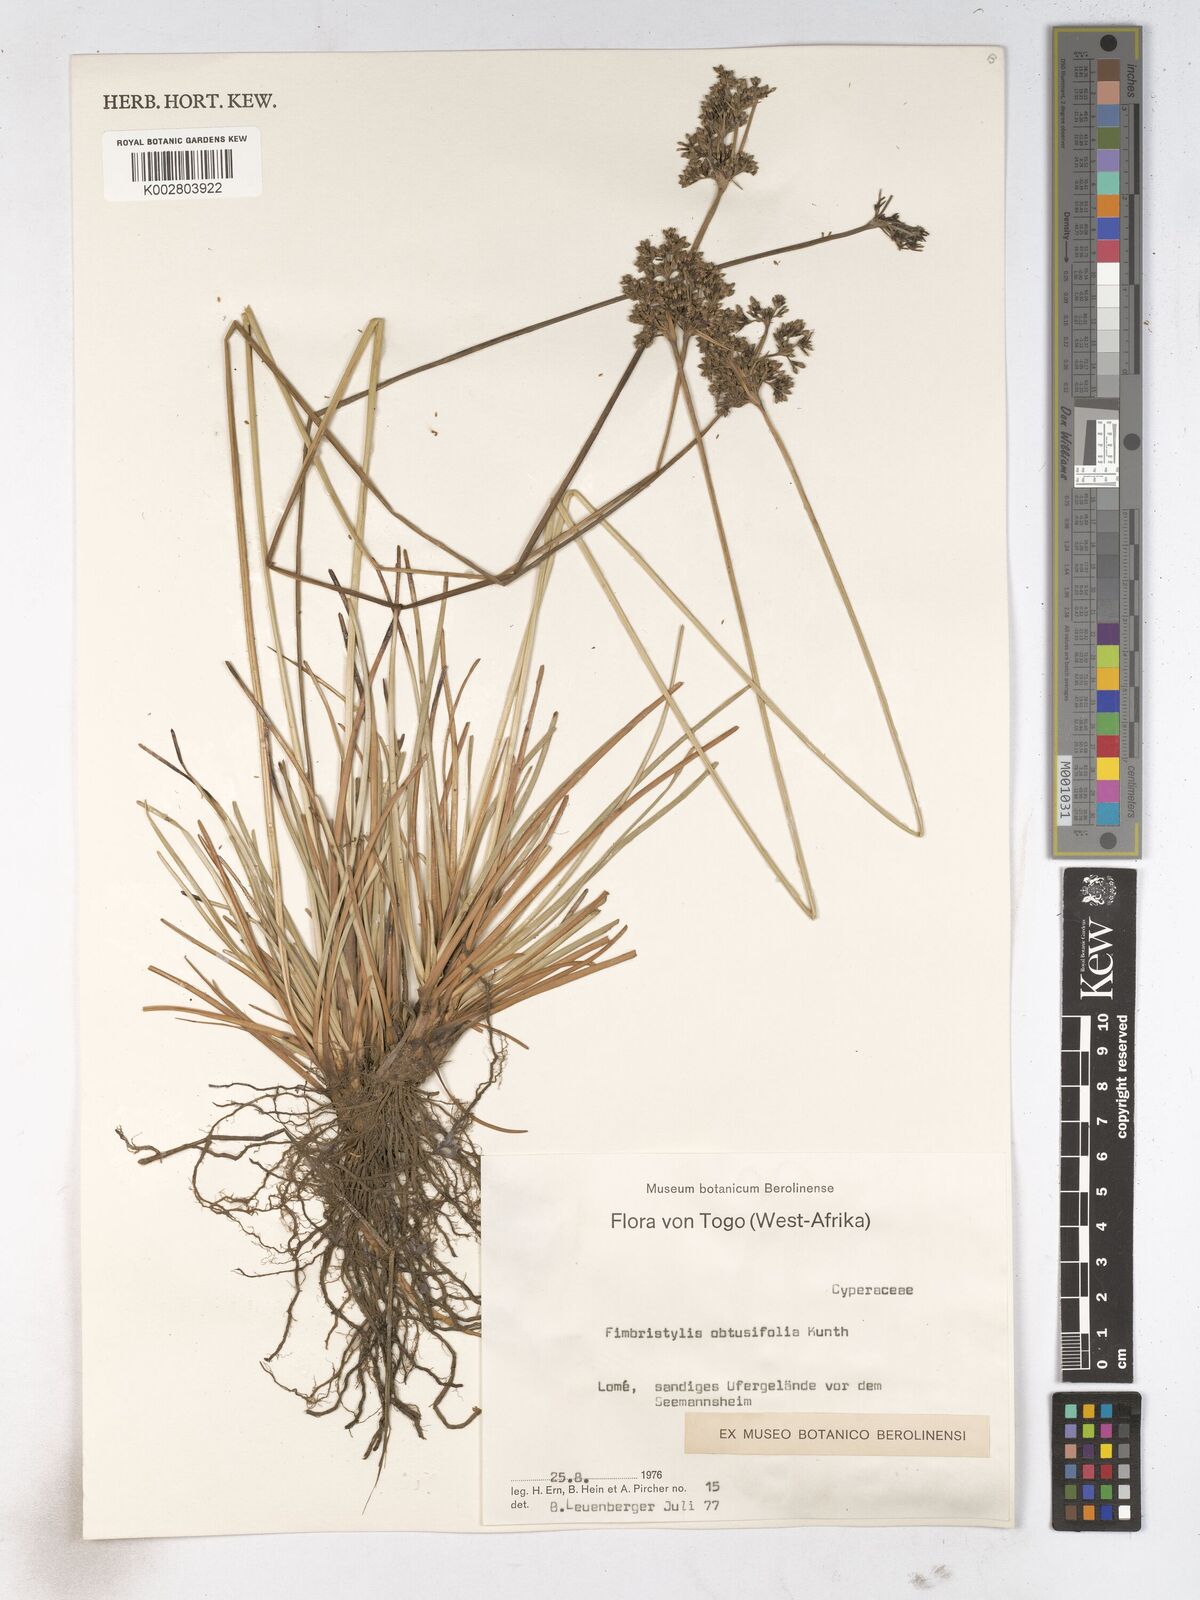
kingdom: Plantae
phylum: Tracheophyta
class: Liliopsida
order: Poales
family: Cyperaceae
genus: Fimbristylis
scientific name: Fimbristylis cymosa
